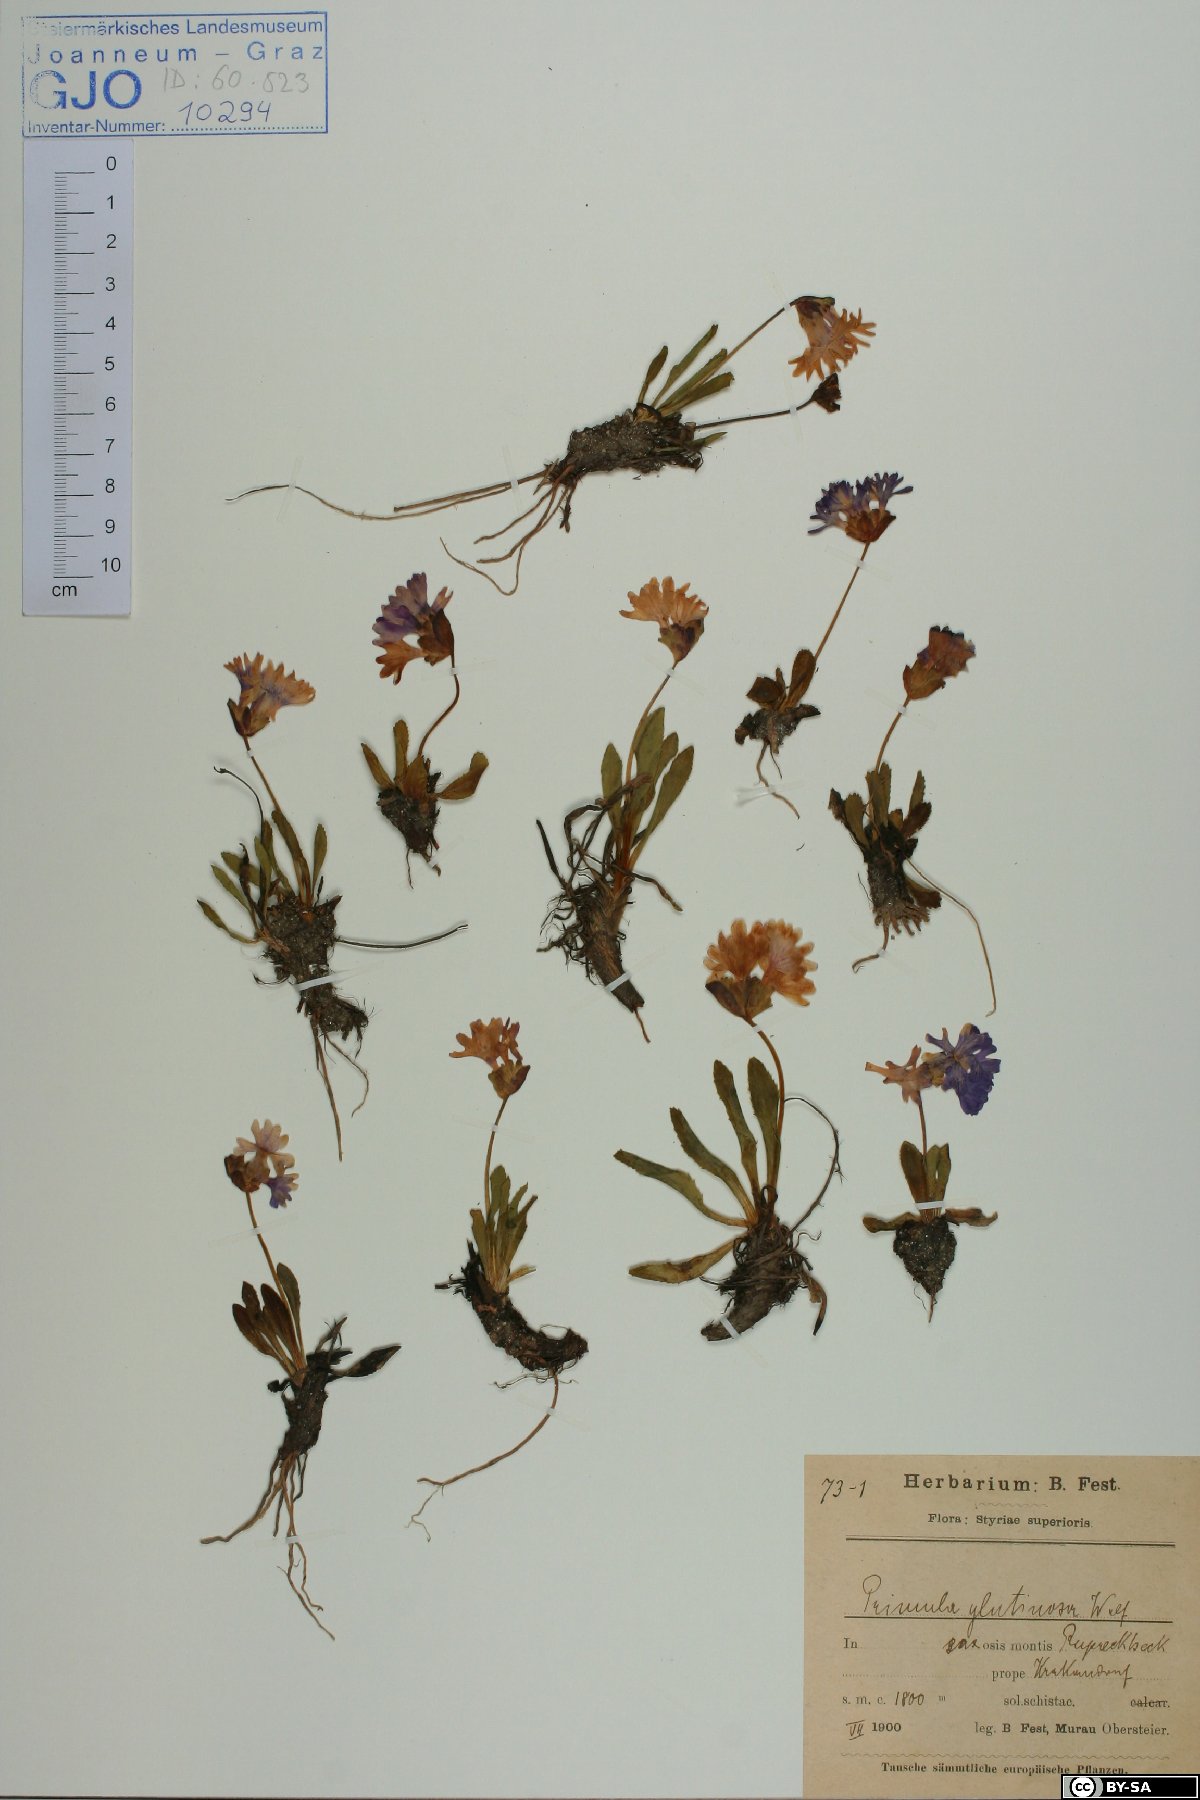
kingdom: Plantae
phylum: Tracheophyta
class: Magnoliopsida
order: Ericales
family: Primulaceae
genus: Primula
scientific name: Primula glutinosa
